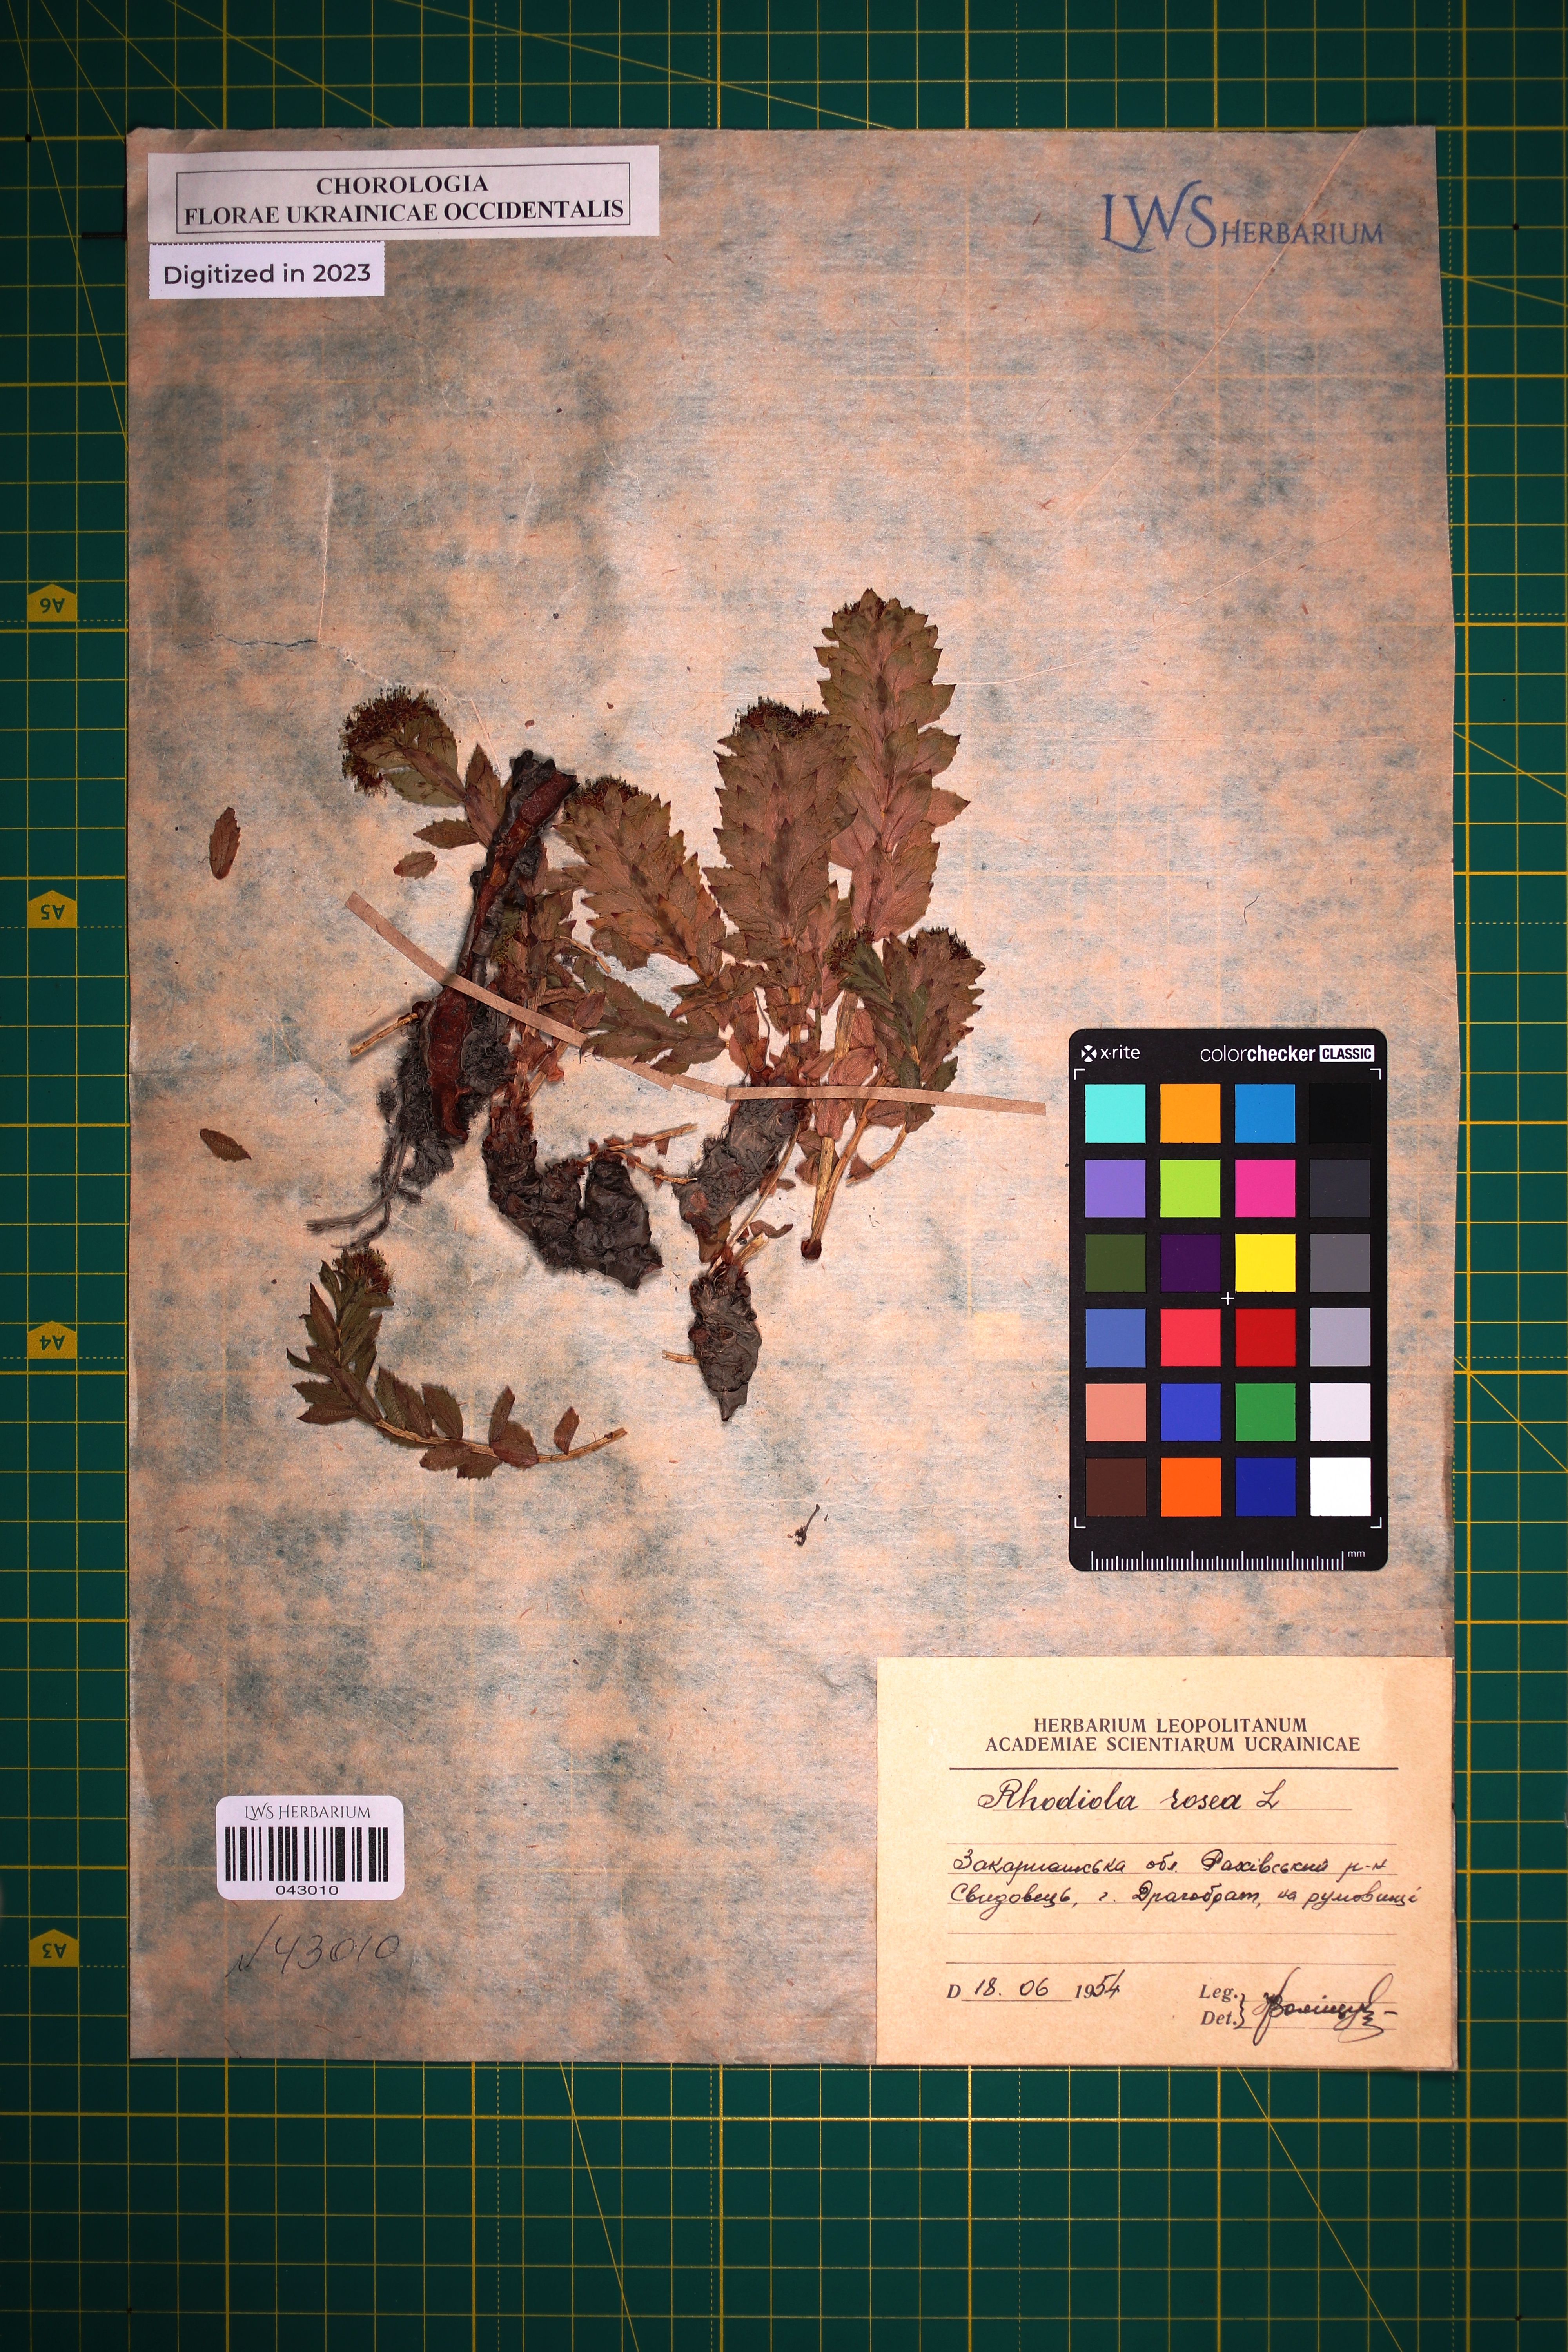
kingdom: Plantae
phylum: Tracheophyta
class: Magnoliopsida
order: Saxifragales
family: Crassulaceae
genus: Rhodiola
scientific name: Rhodiola rosea
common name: Roseroot
